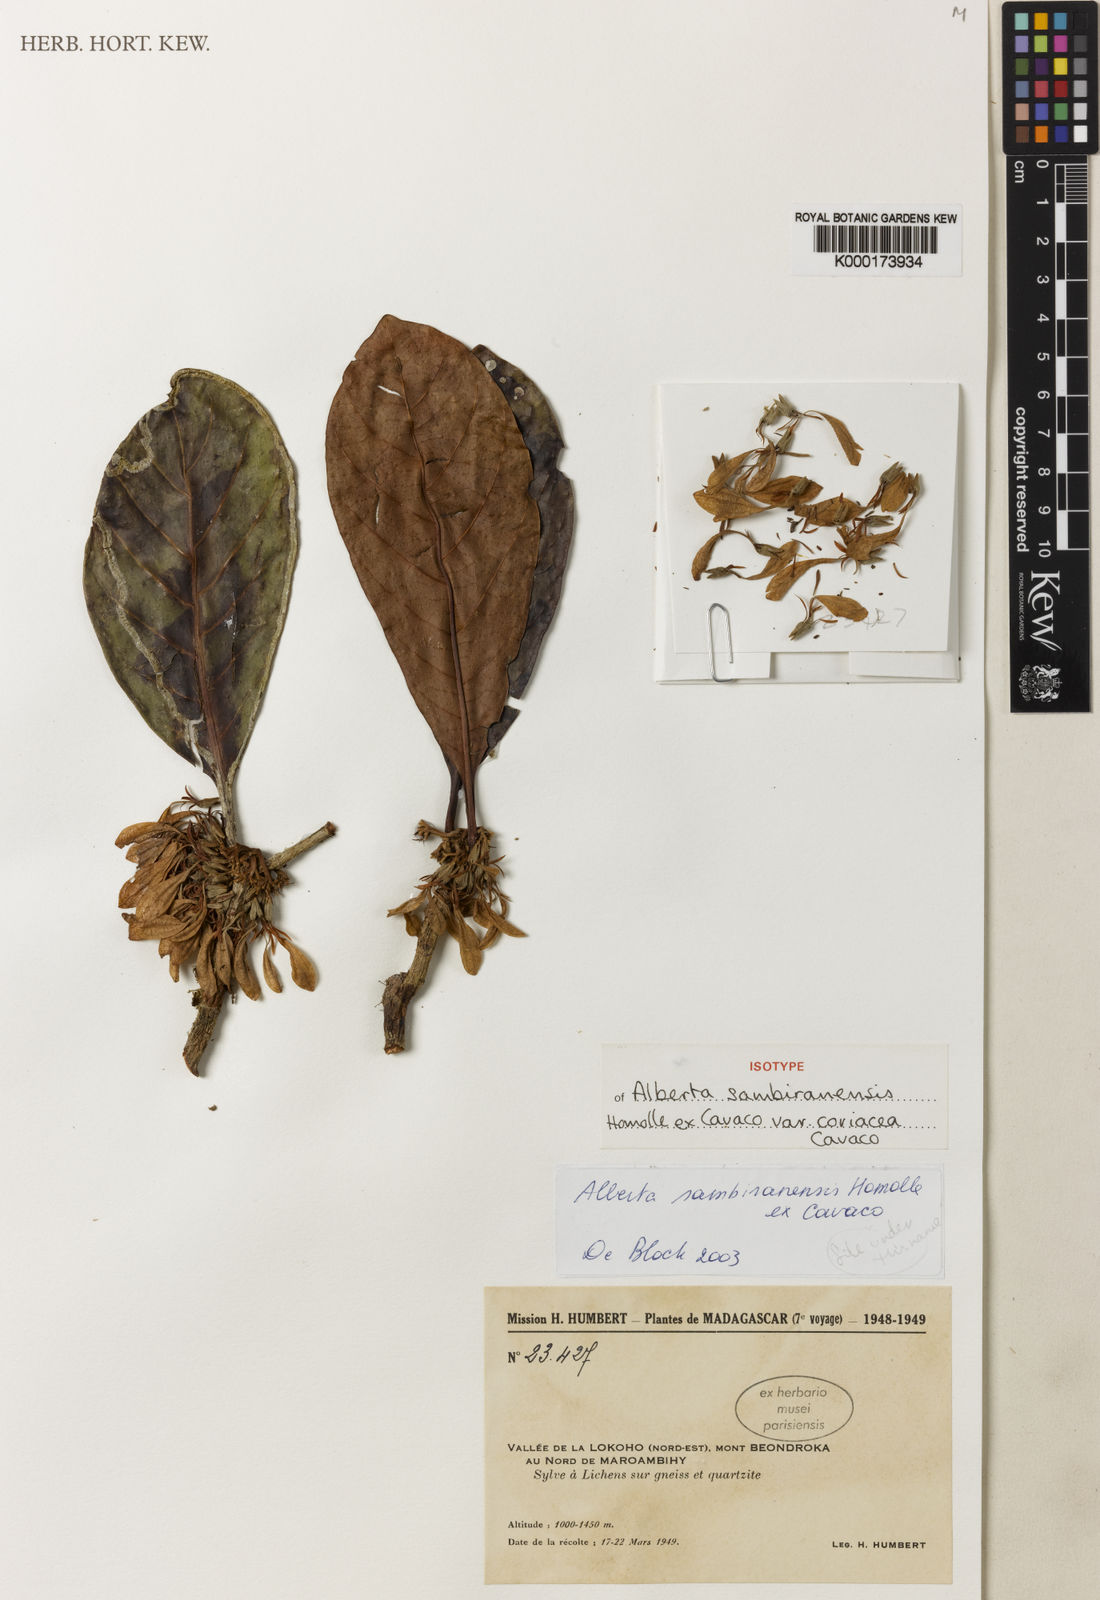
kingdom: Plantae
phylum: Tracheophyta
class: Magnoliopsida
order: Gentianales
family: Rubiaceae
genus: Razafimandimbisonia
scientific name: Razafimandimbisonia sambiranensis
